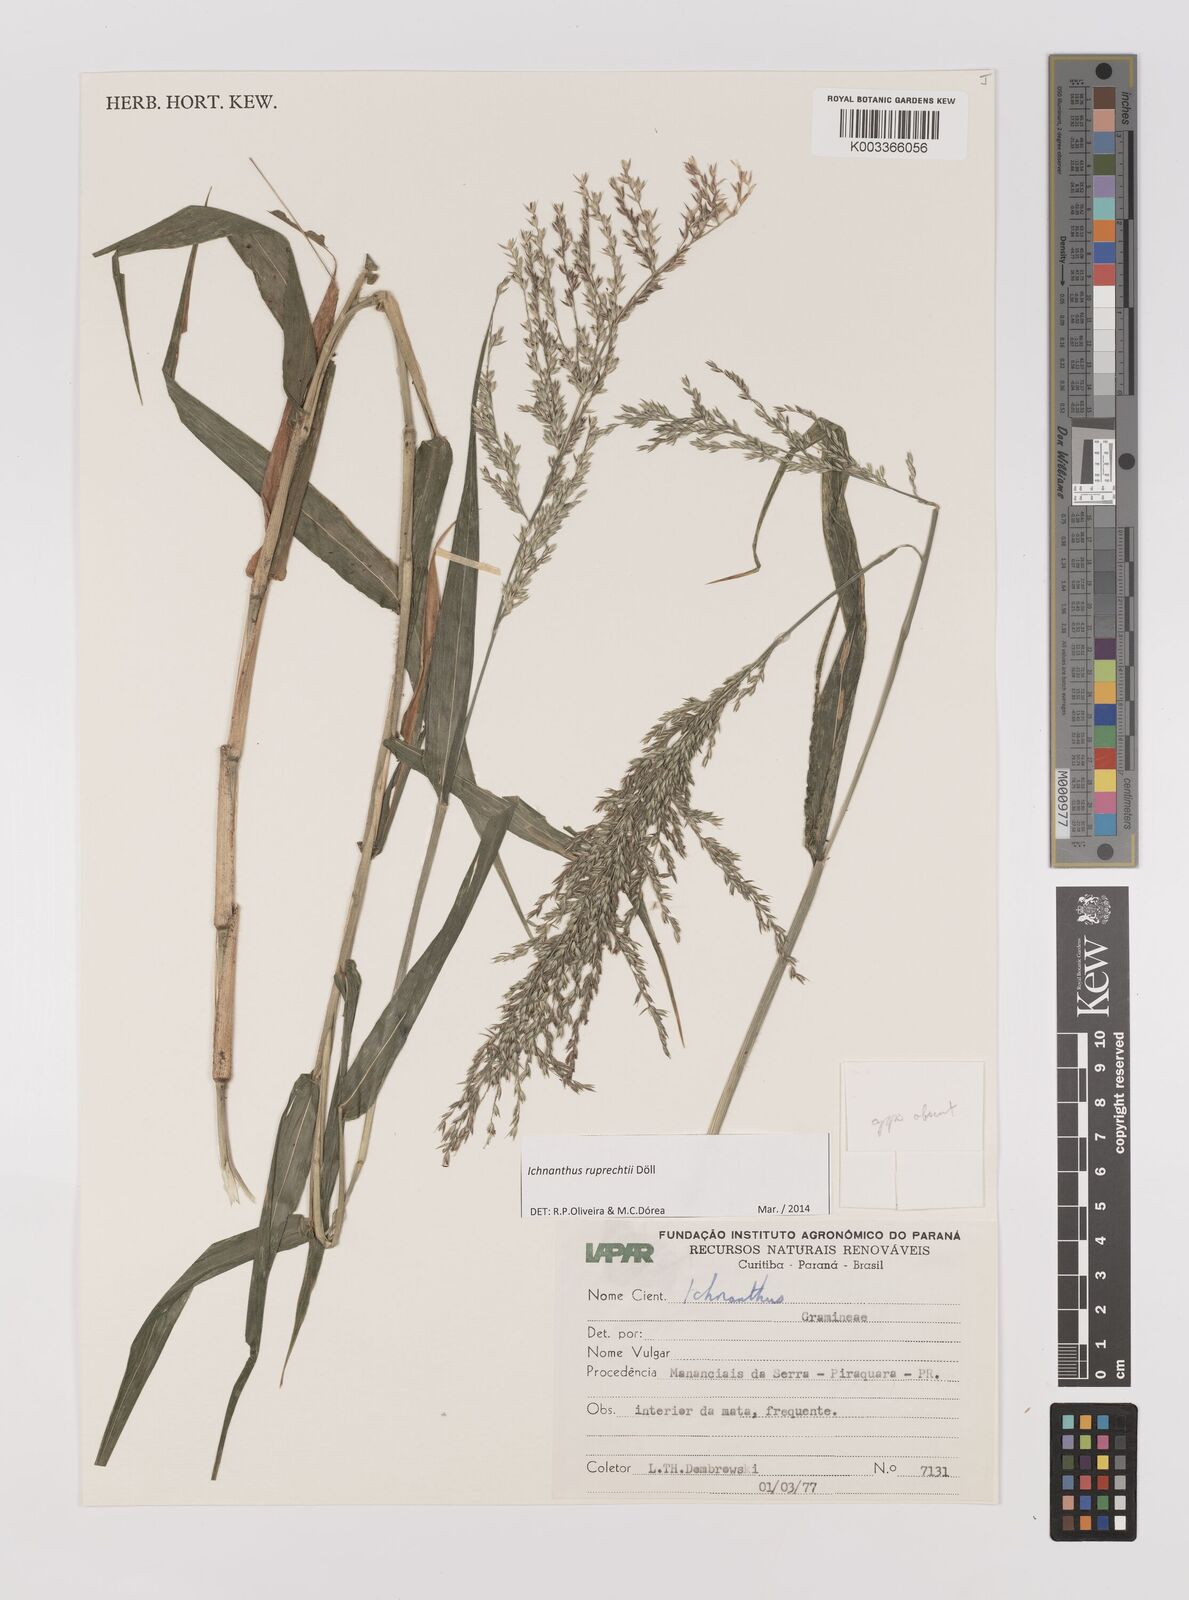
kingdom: Plantae
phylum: Tracheophyta
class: Liliopsida
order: Poales
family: Poaceae
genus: Ichnanthus
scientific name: Ichnanthus ruprechtii
